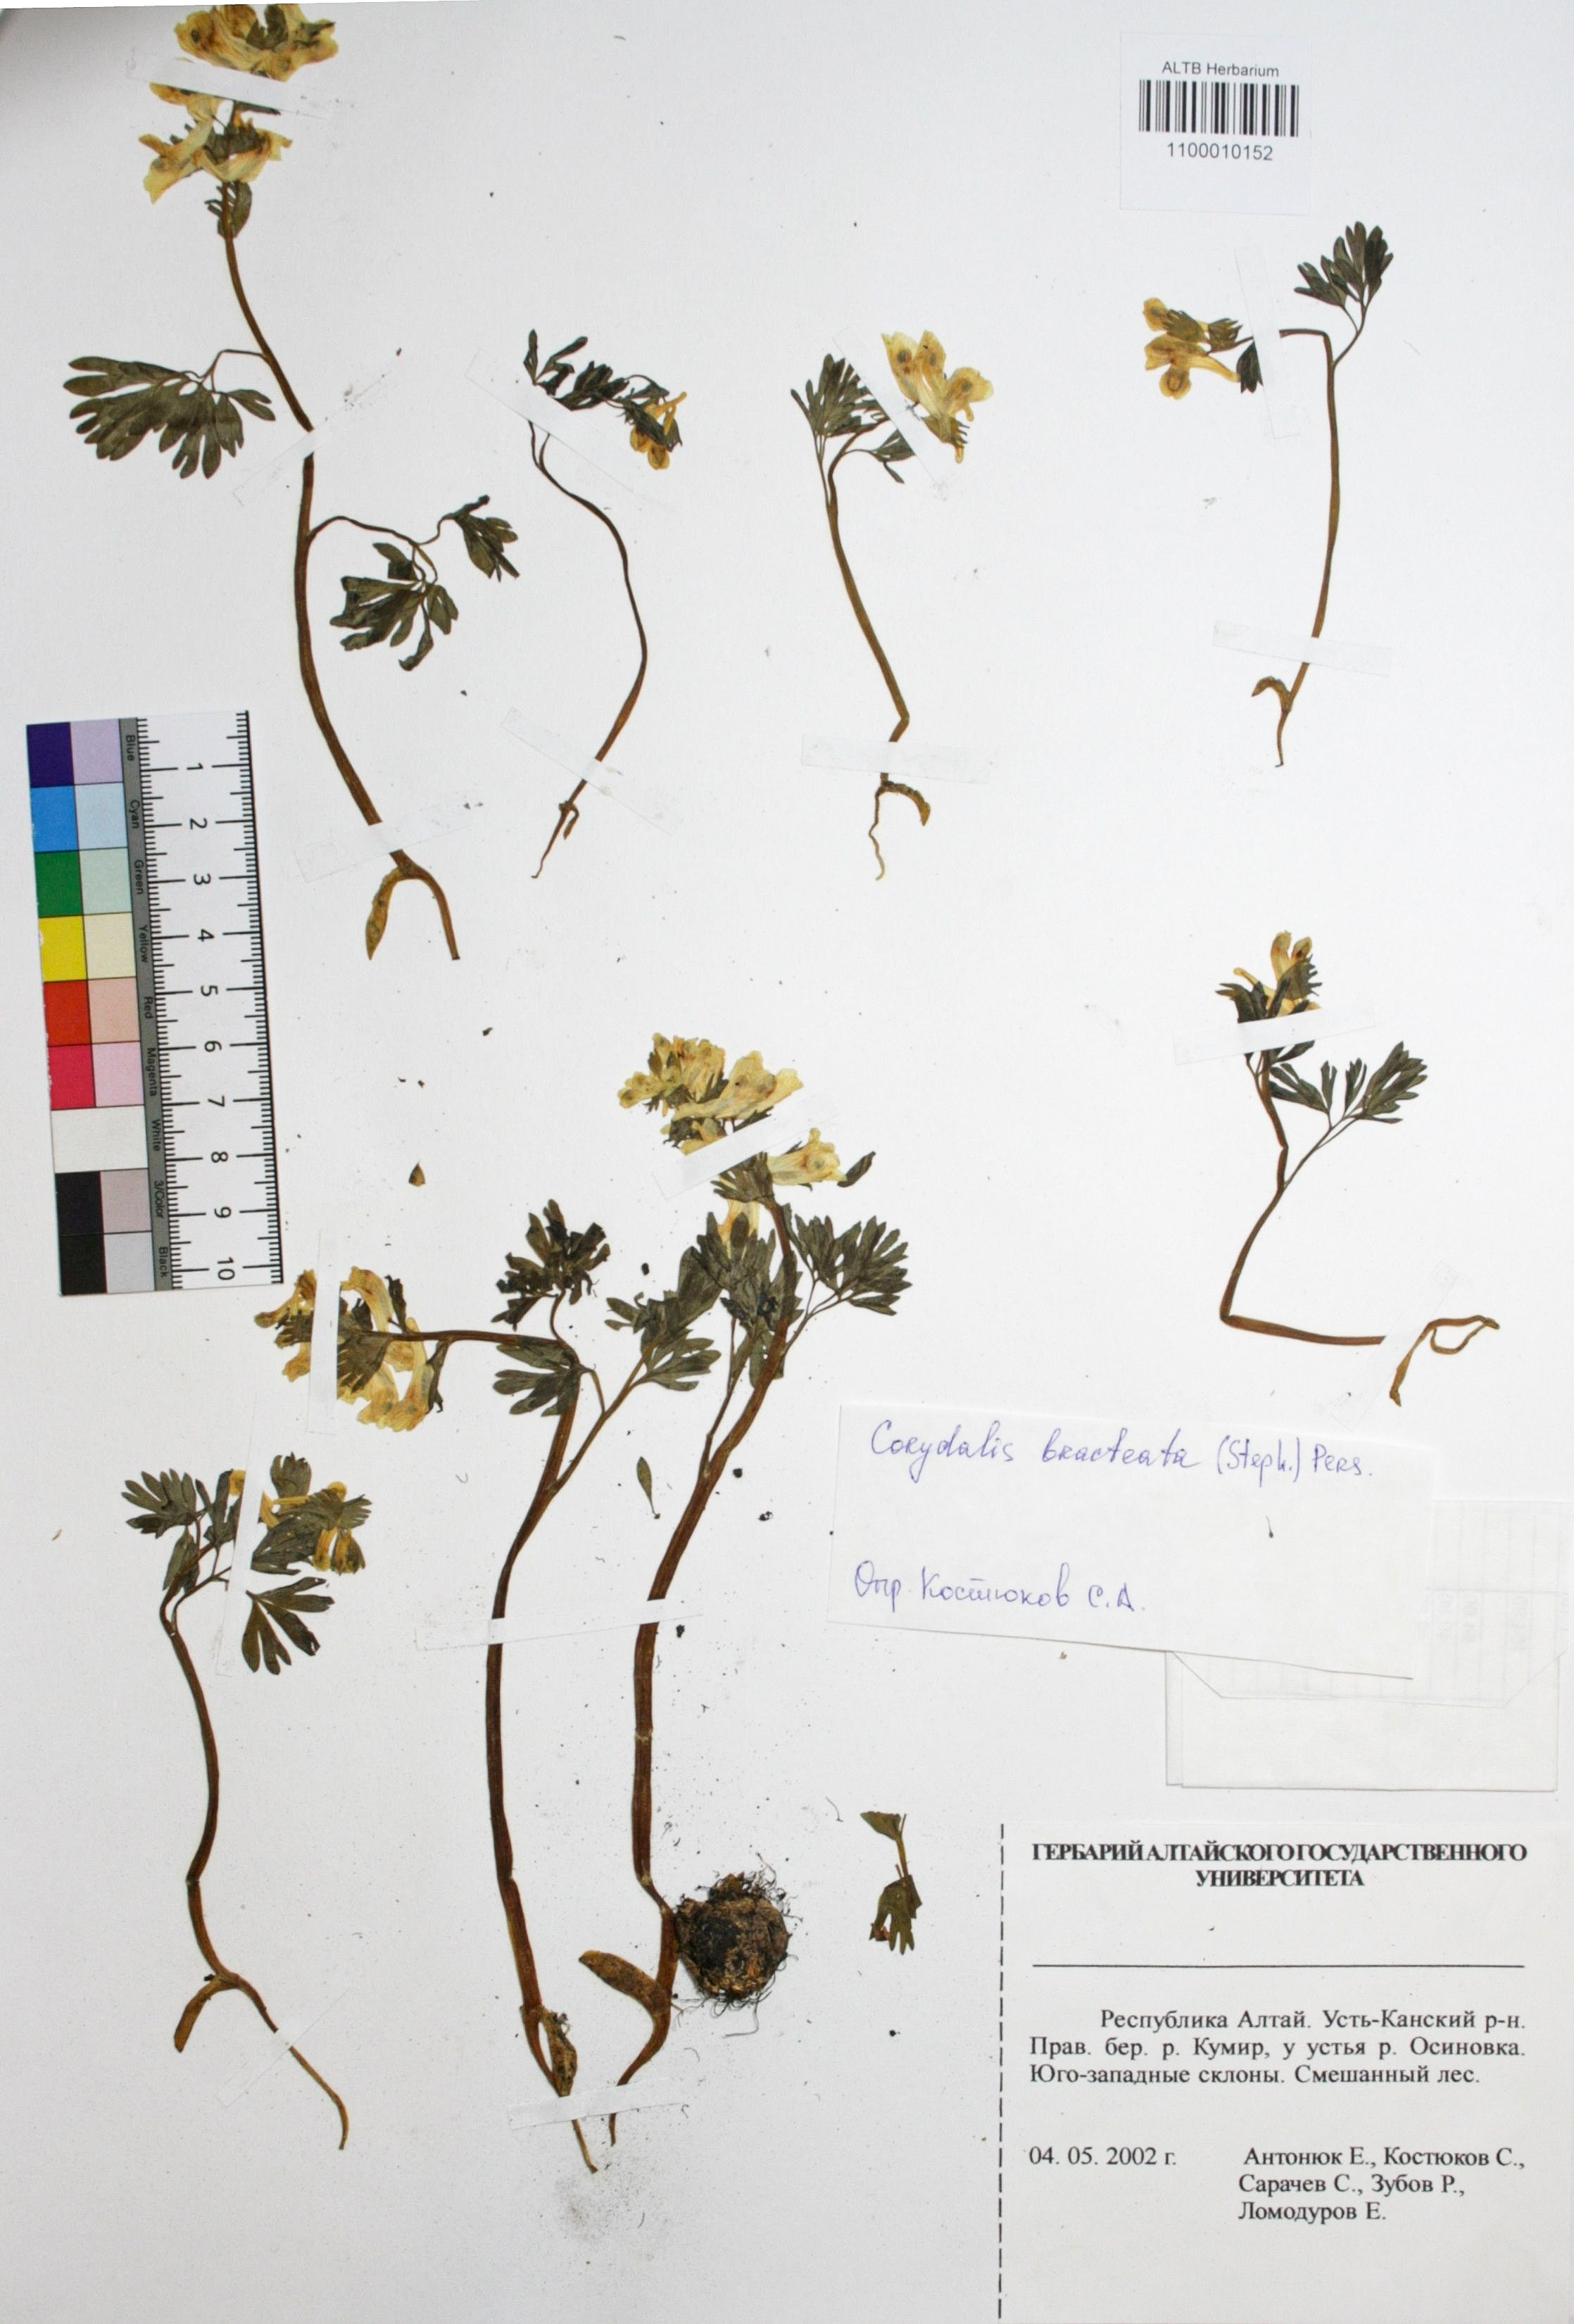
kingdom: Plantae
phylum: Tracheophyta
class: Magnoliopsida
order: Ranunculales
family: Papaveraceae
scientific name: Papaveraceae
